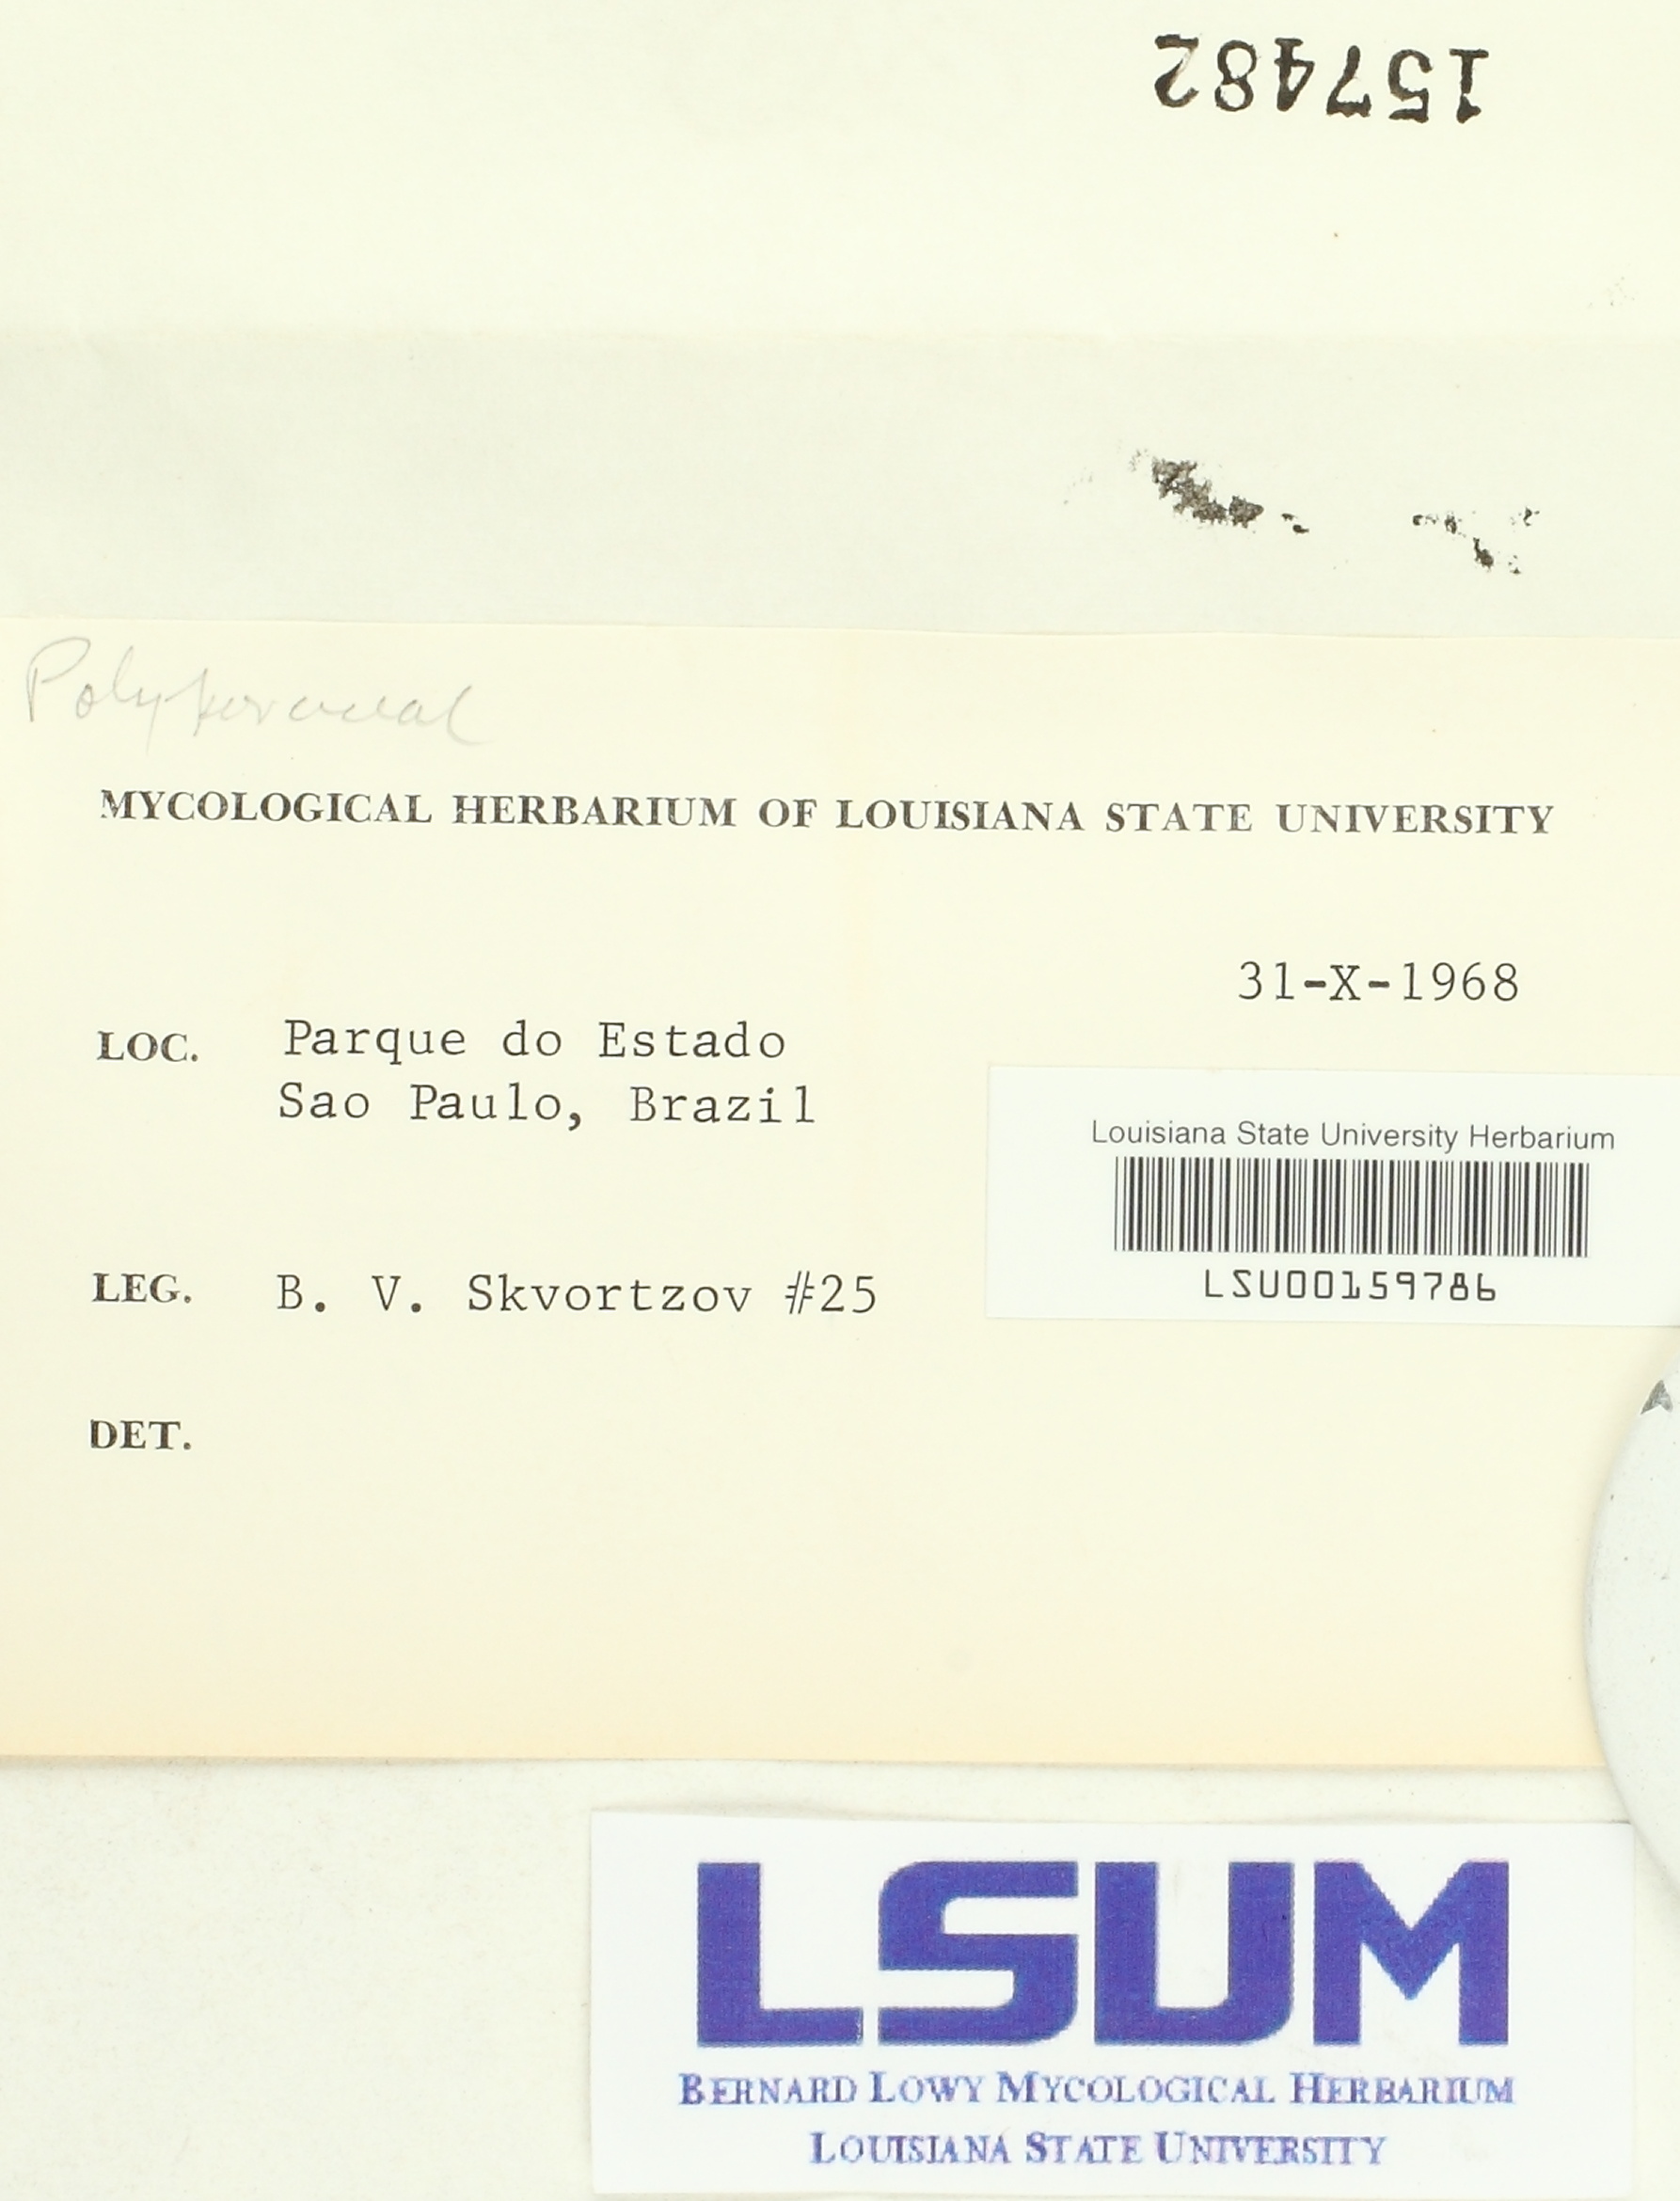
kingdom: Fungi
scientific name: Fungi
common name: Fungi
